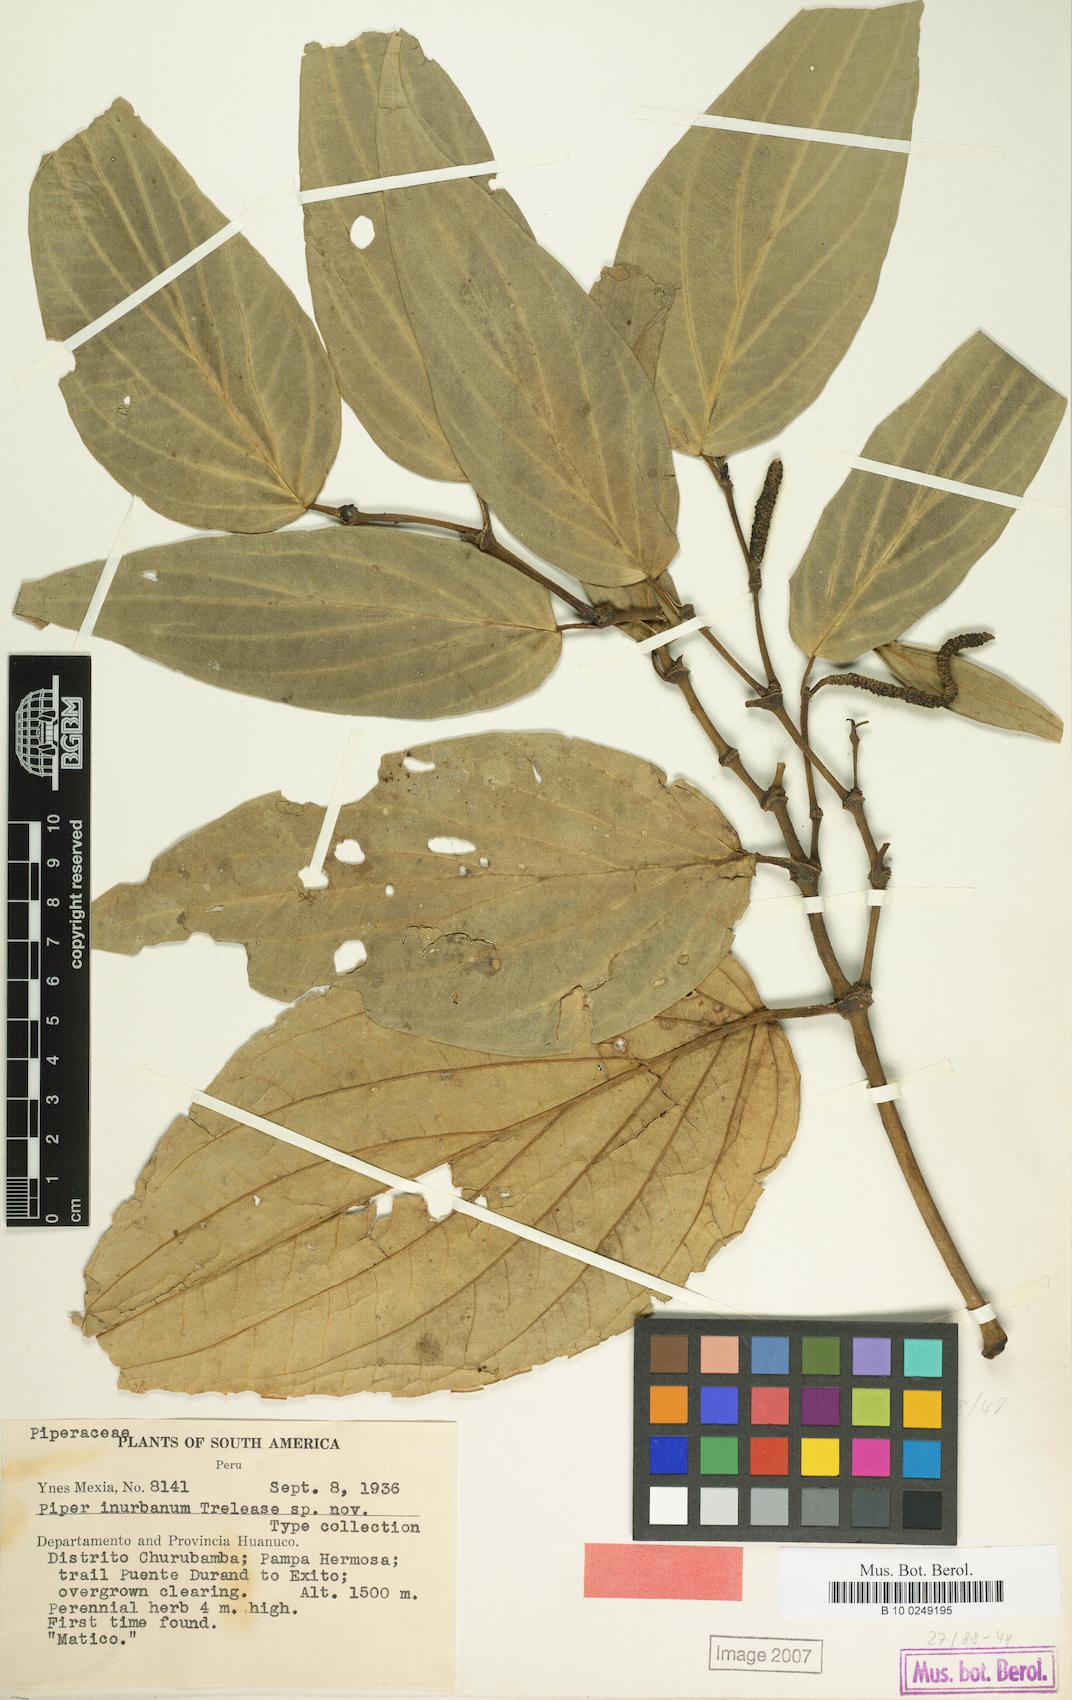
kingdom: Plantae
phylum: Tracheophyta
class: Magnoliopsida
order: Piperales
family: Piperaceae
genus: Piper
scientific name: Piper
